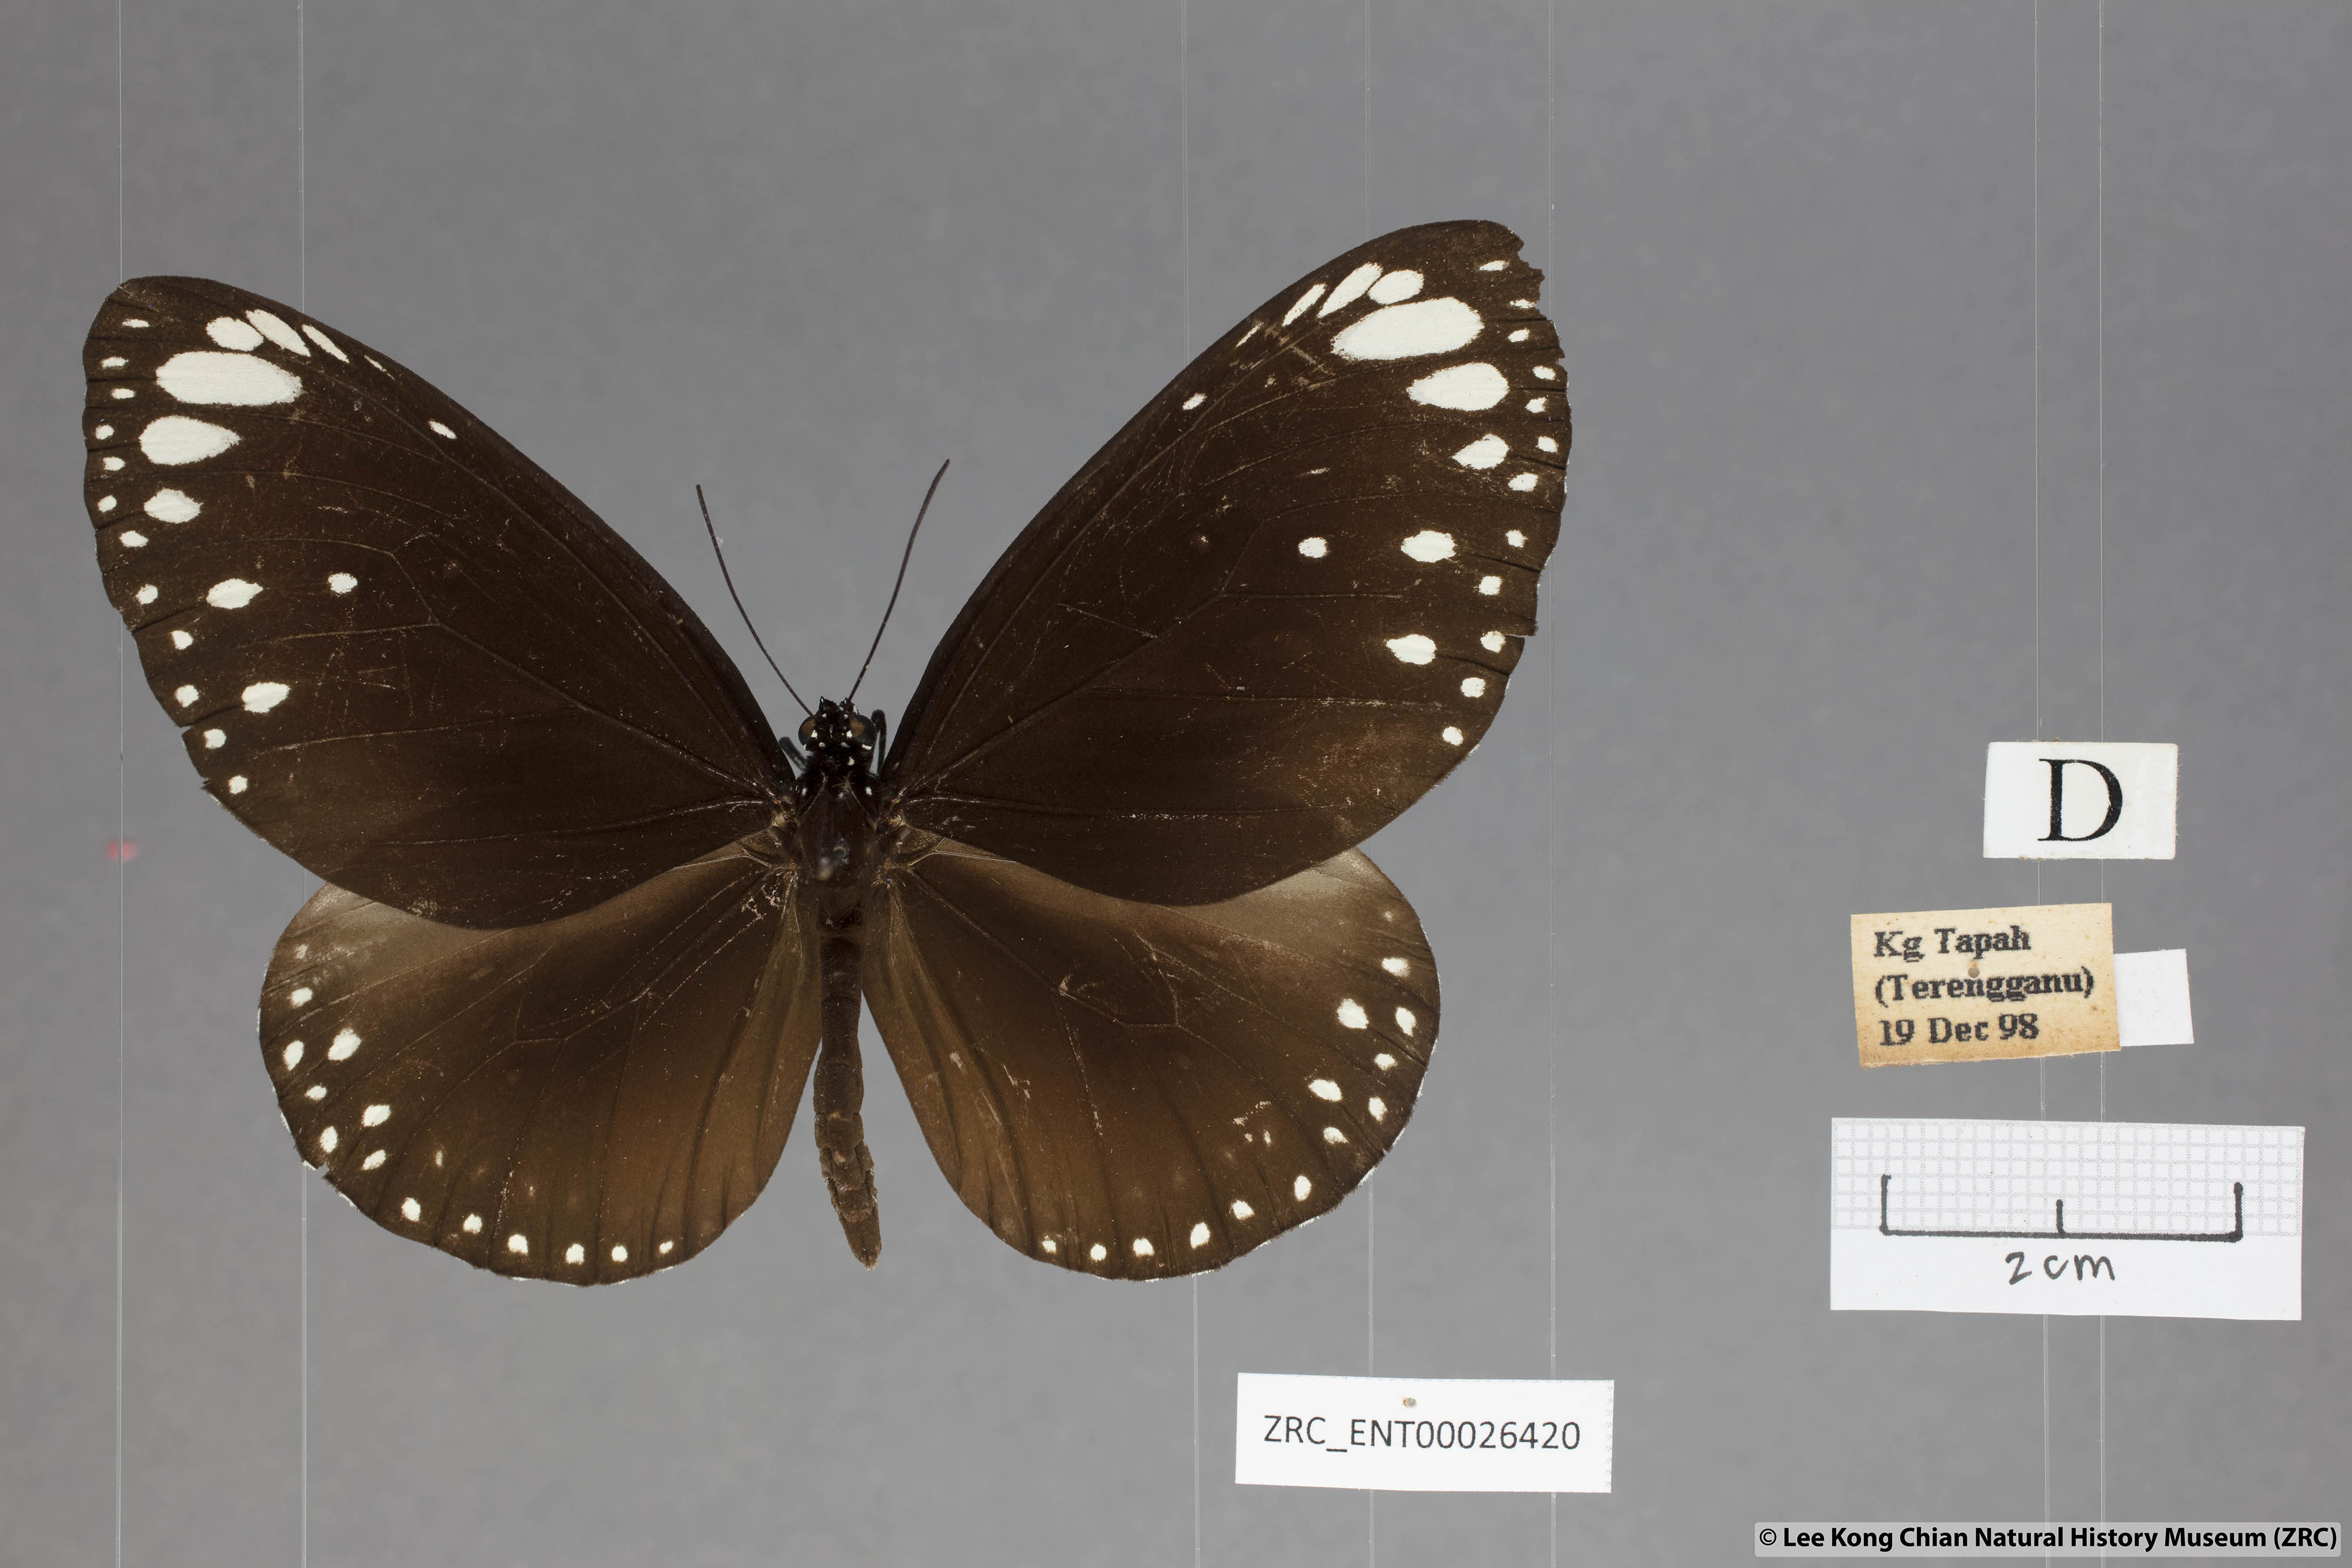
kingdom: Animalia
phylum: Arthropoda
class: Insecta
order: Lepidoptera
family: Nymphalidae
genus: Euploea
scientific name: Euploea core
